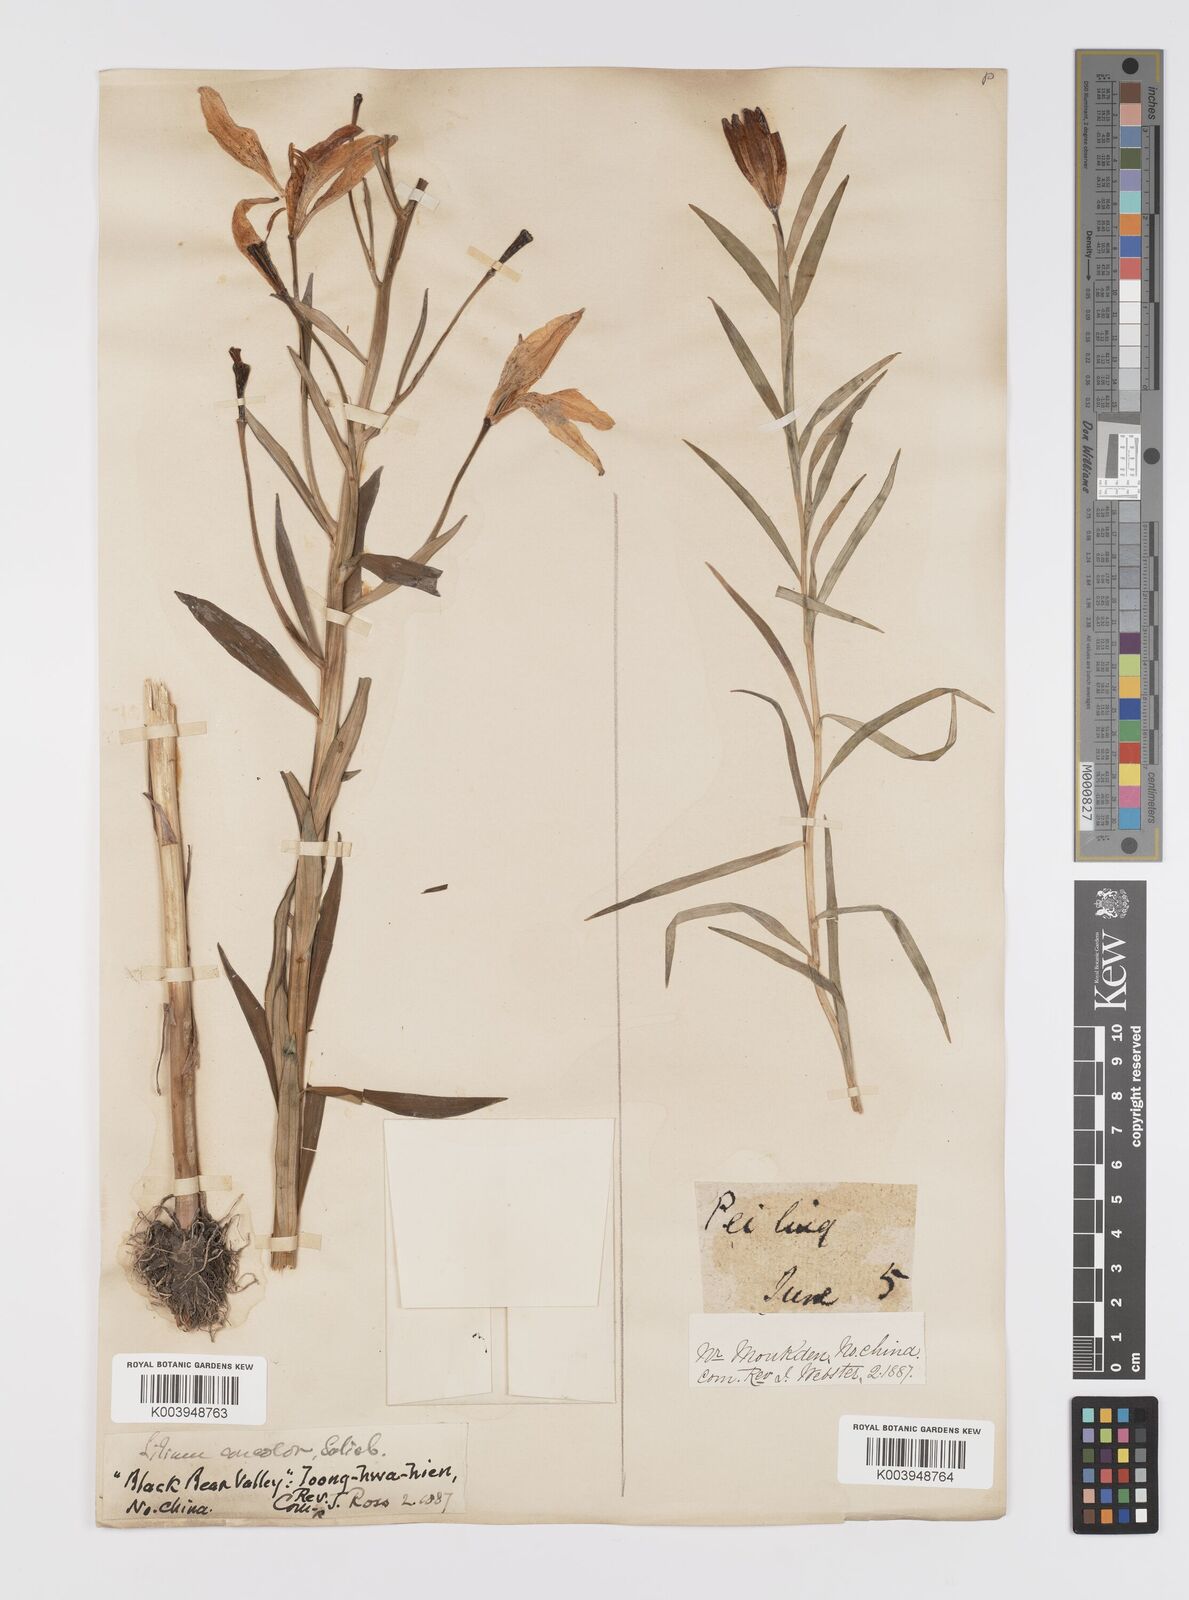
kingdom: Plantae
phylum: Tracheophyta
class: Liliopsida
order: Liliales
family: Liliaceae
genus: Lilium
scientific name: Lilium concolor
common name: Morning-star lily
